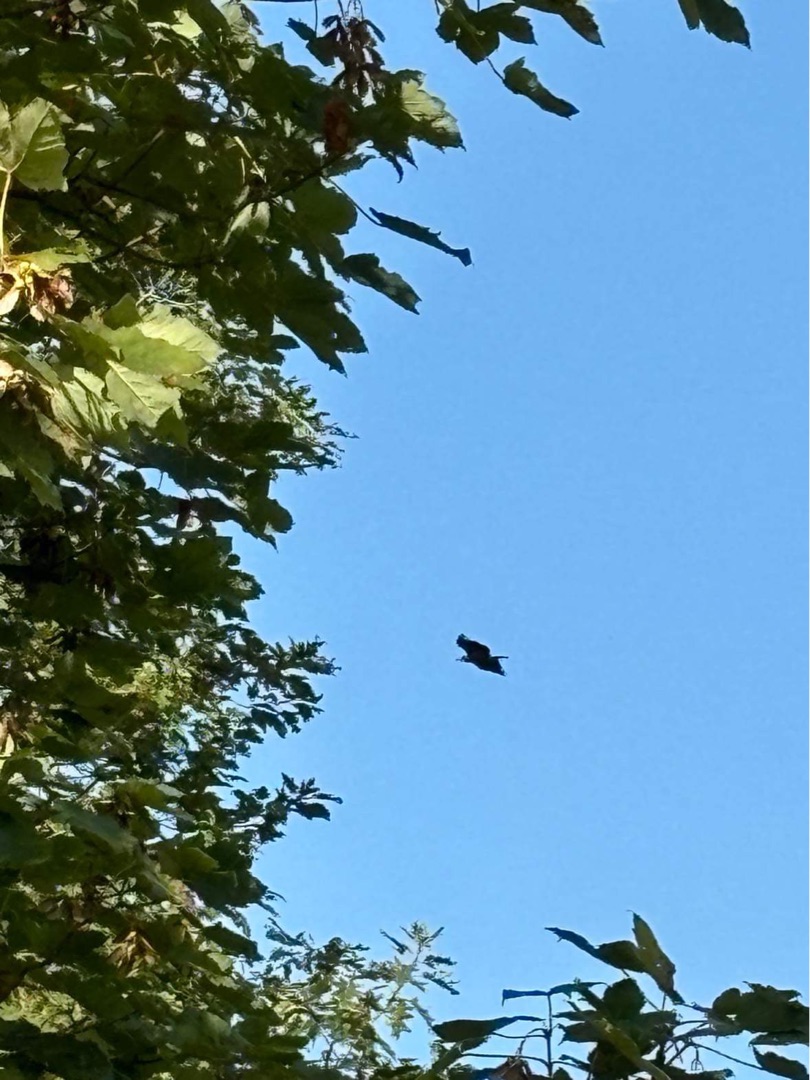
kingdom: Animalia
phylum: Chordata
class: Aves
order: Accipitriformes
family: Accipitridae
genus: Haliaeetus
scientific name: Haliaeetus albicilla
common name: Havørn
